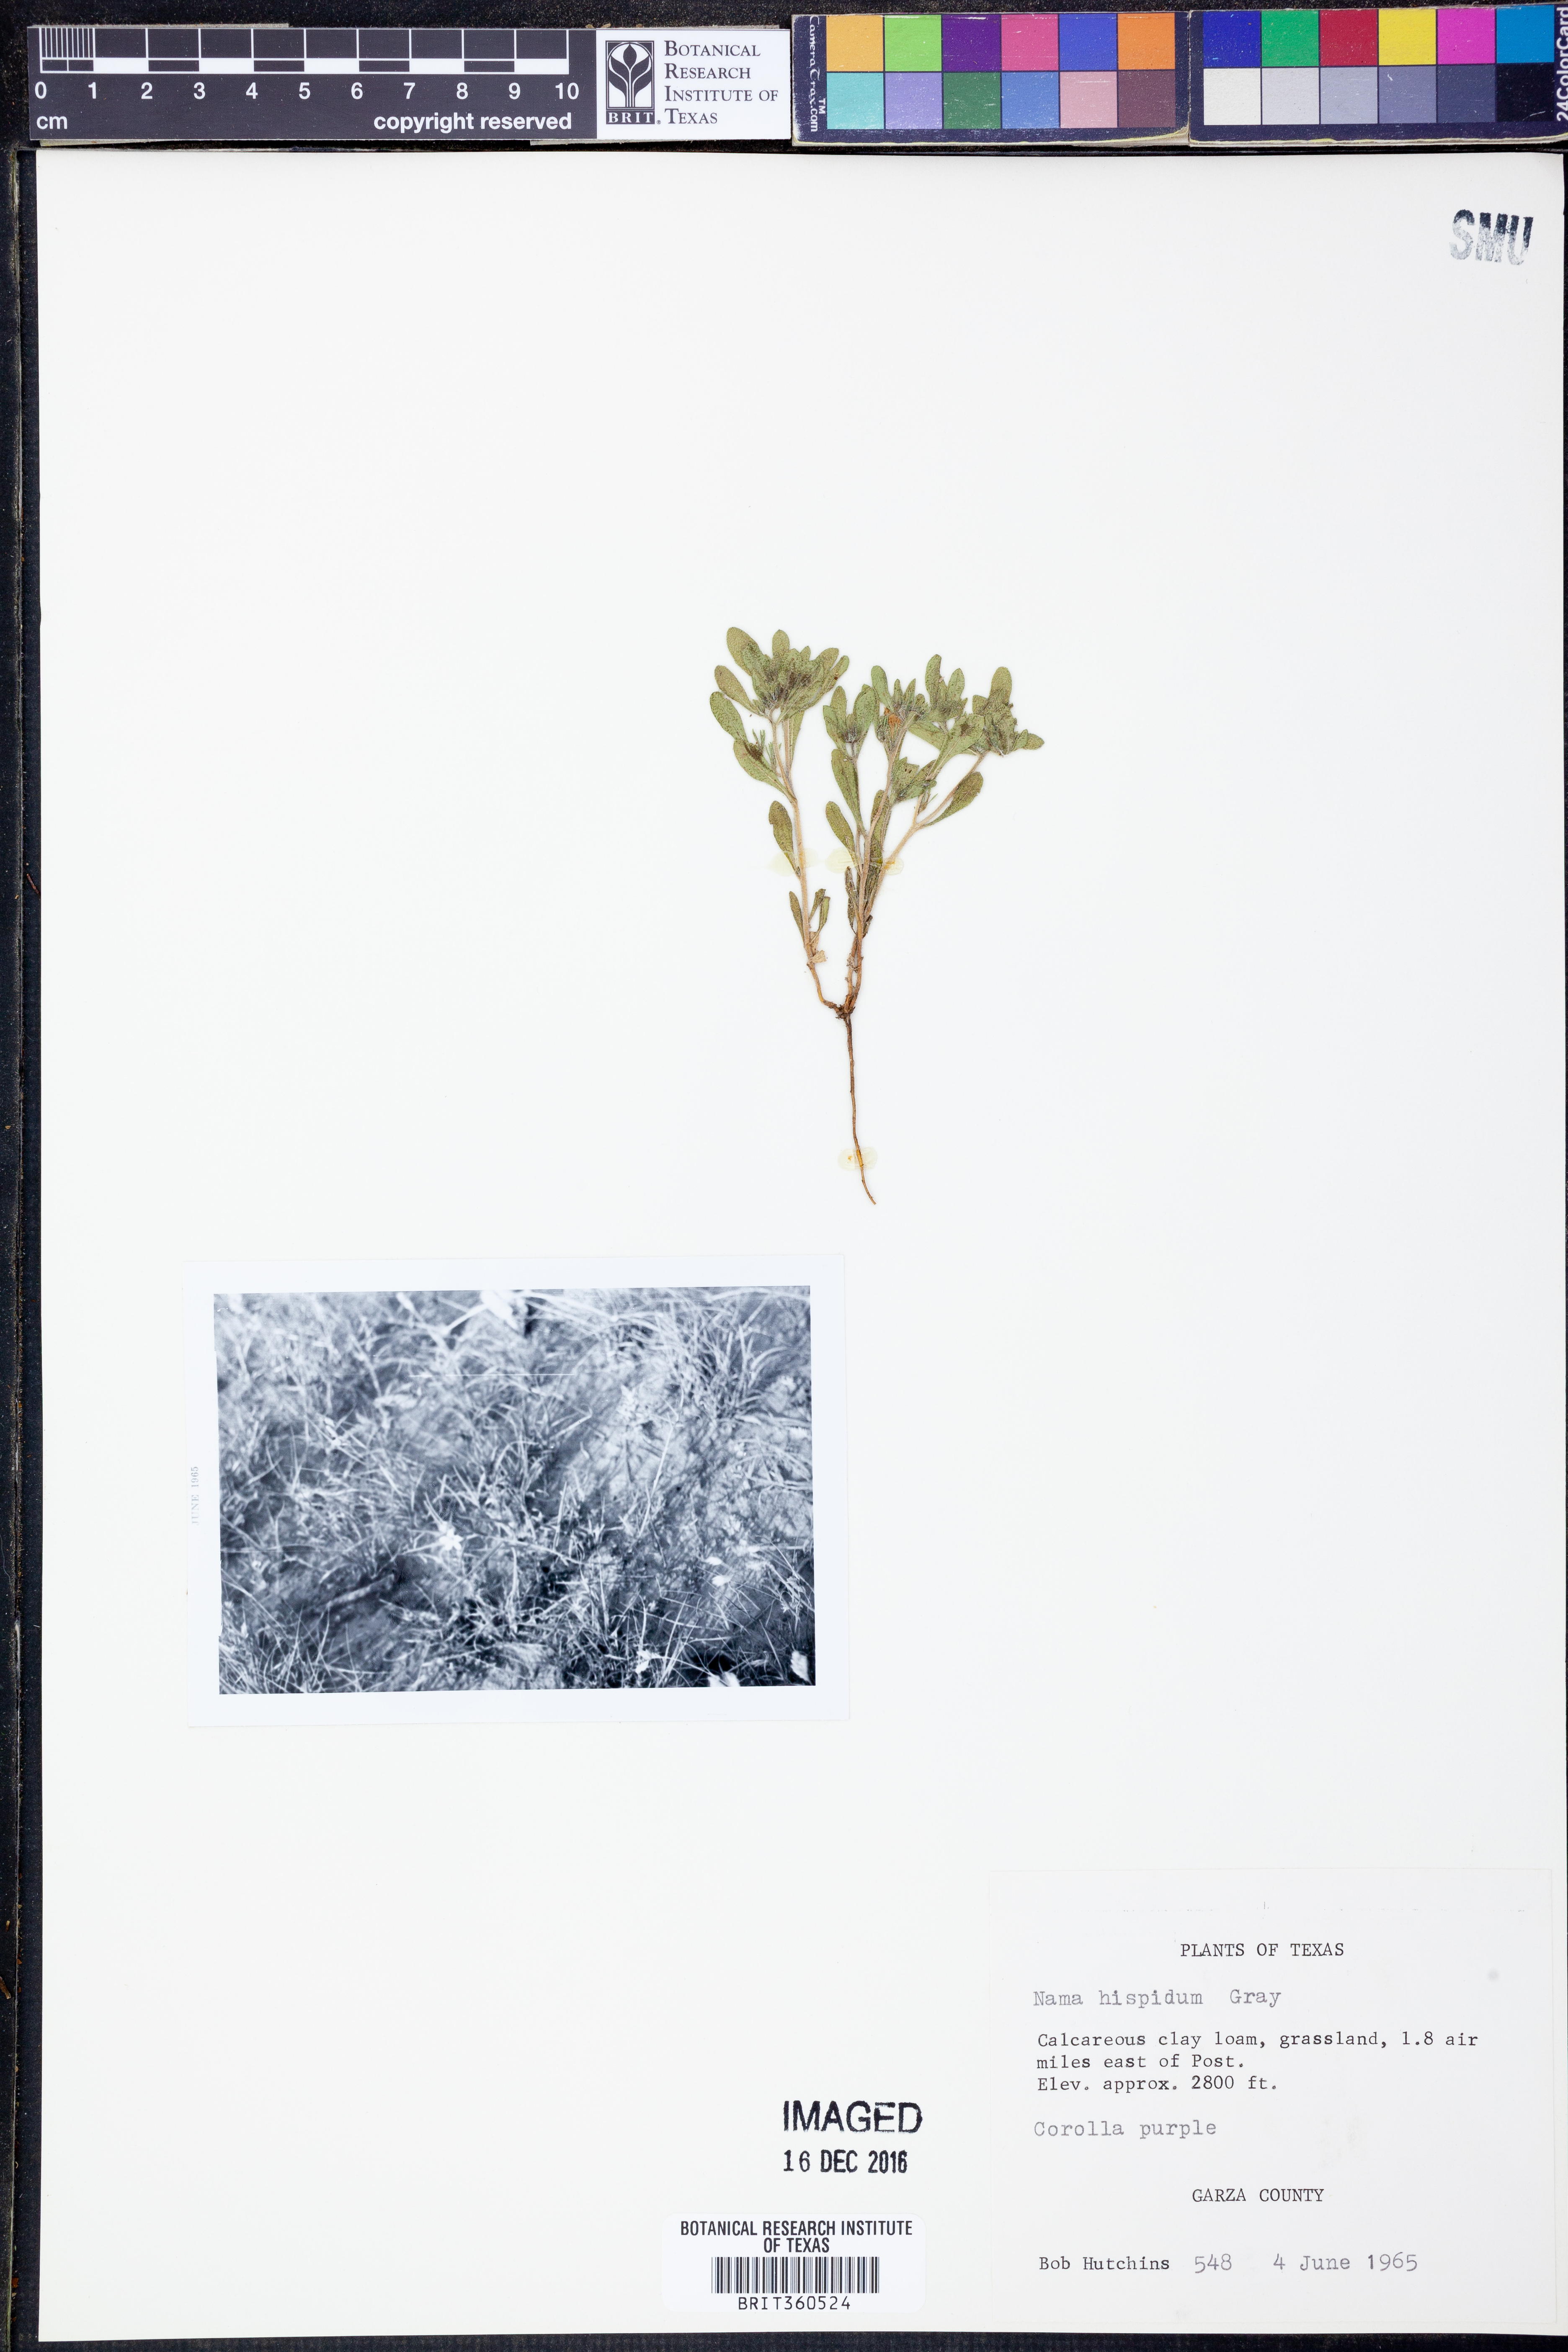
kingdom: Plantae
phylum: Tracheophyta
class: Magnoliopsida
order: Boraginales
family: Namaceae
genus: Nama
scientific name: Nama hispida
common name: Bristly nama
